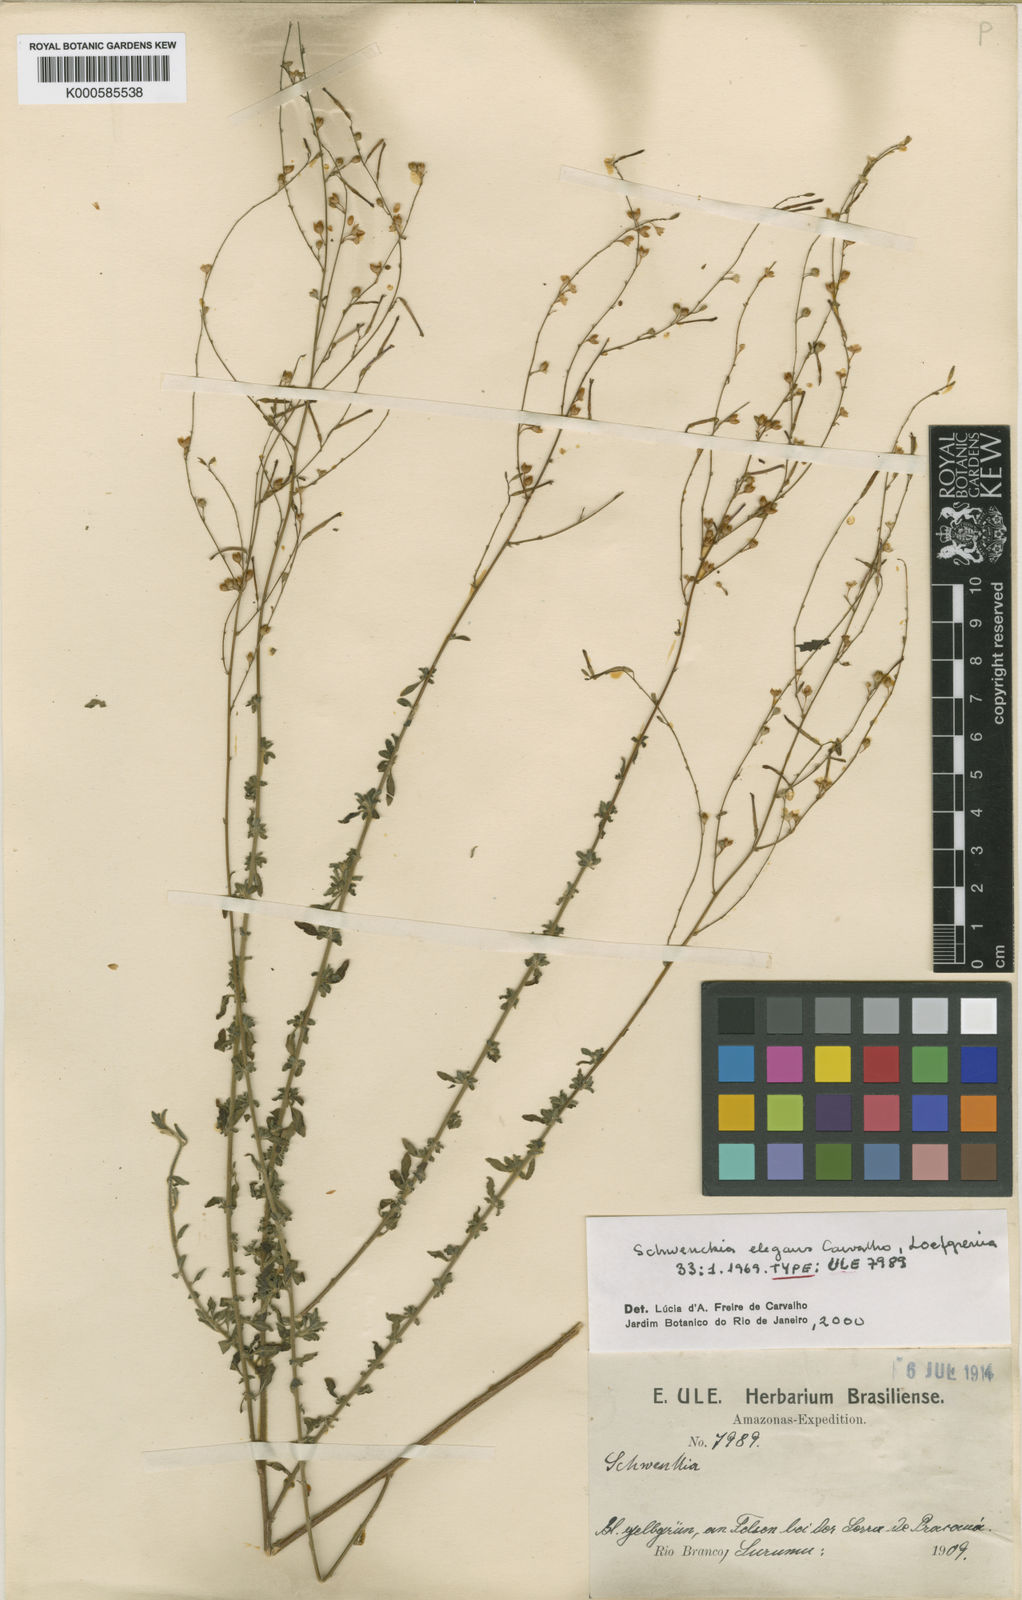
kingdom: Plantae
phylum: Tracheophyta
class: Magnoliopsida
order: Solanales
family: Solanaceae
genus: Schwenckia
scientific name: Schwenckia elegans
